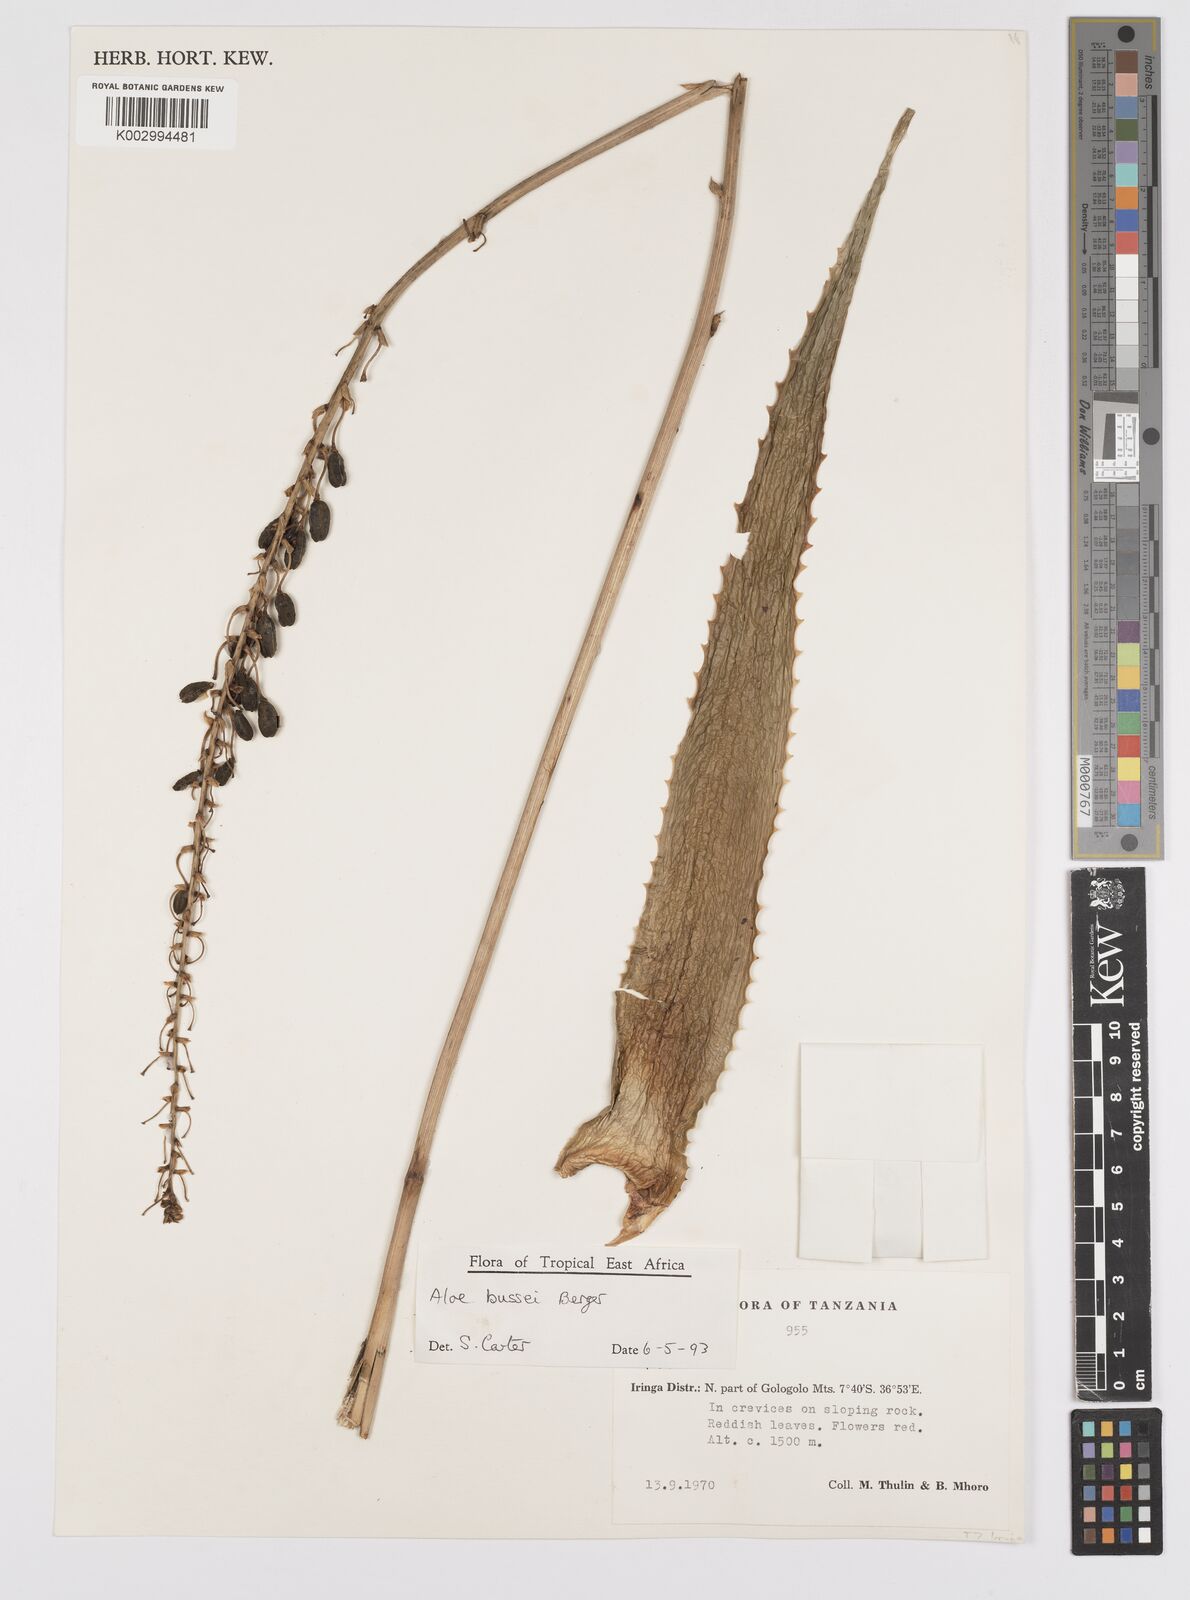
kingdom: Plantae
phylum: Tracheophyta
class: Liliopsida
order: Asparagales
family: Asphodelaceae
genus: Aloe
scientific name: Aloe bussei
